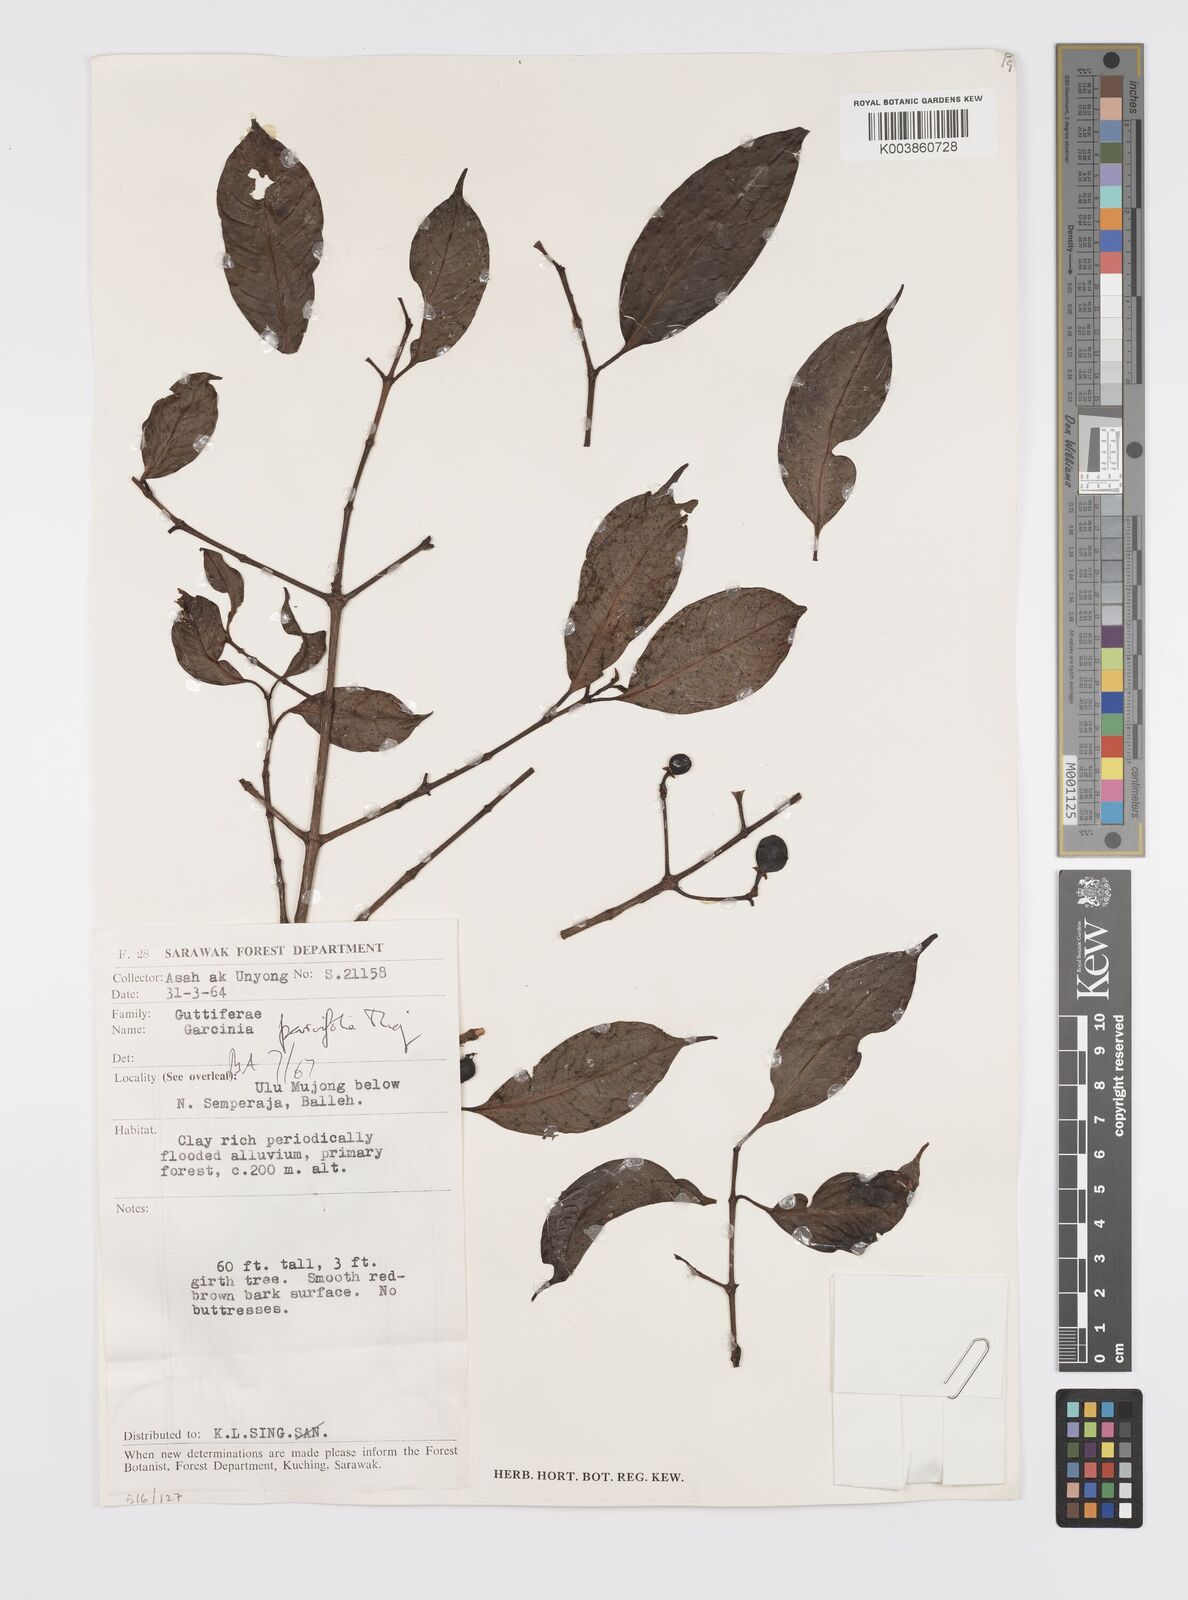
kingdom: Plantae
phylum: Tracheophyta
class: Magnoliopsida
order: Malpighiales
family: Clusiaceae
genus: Garcinia
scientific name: Garcinia parvifolia
